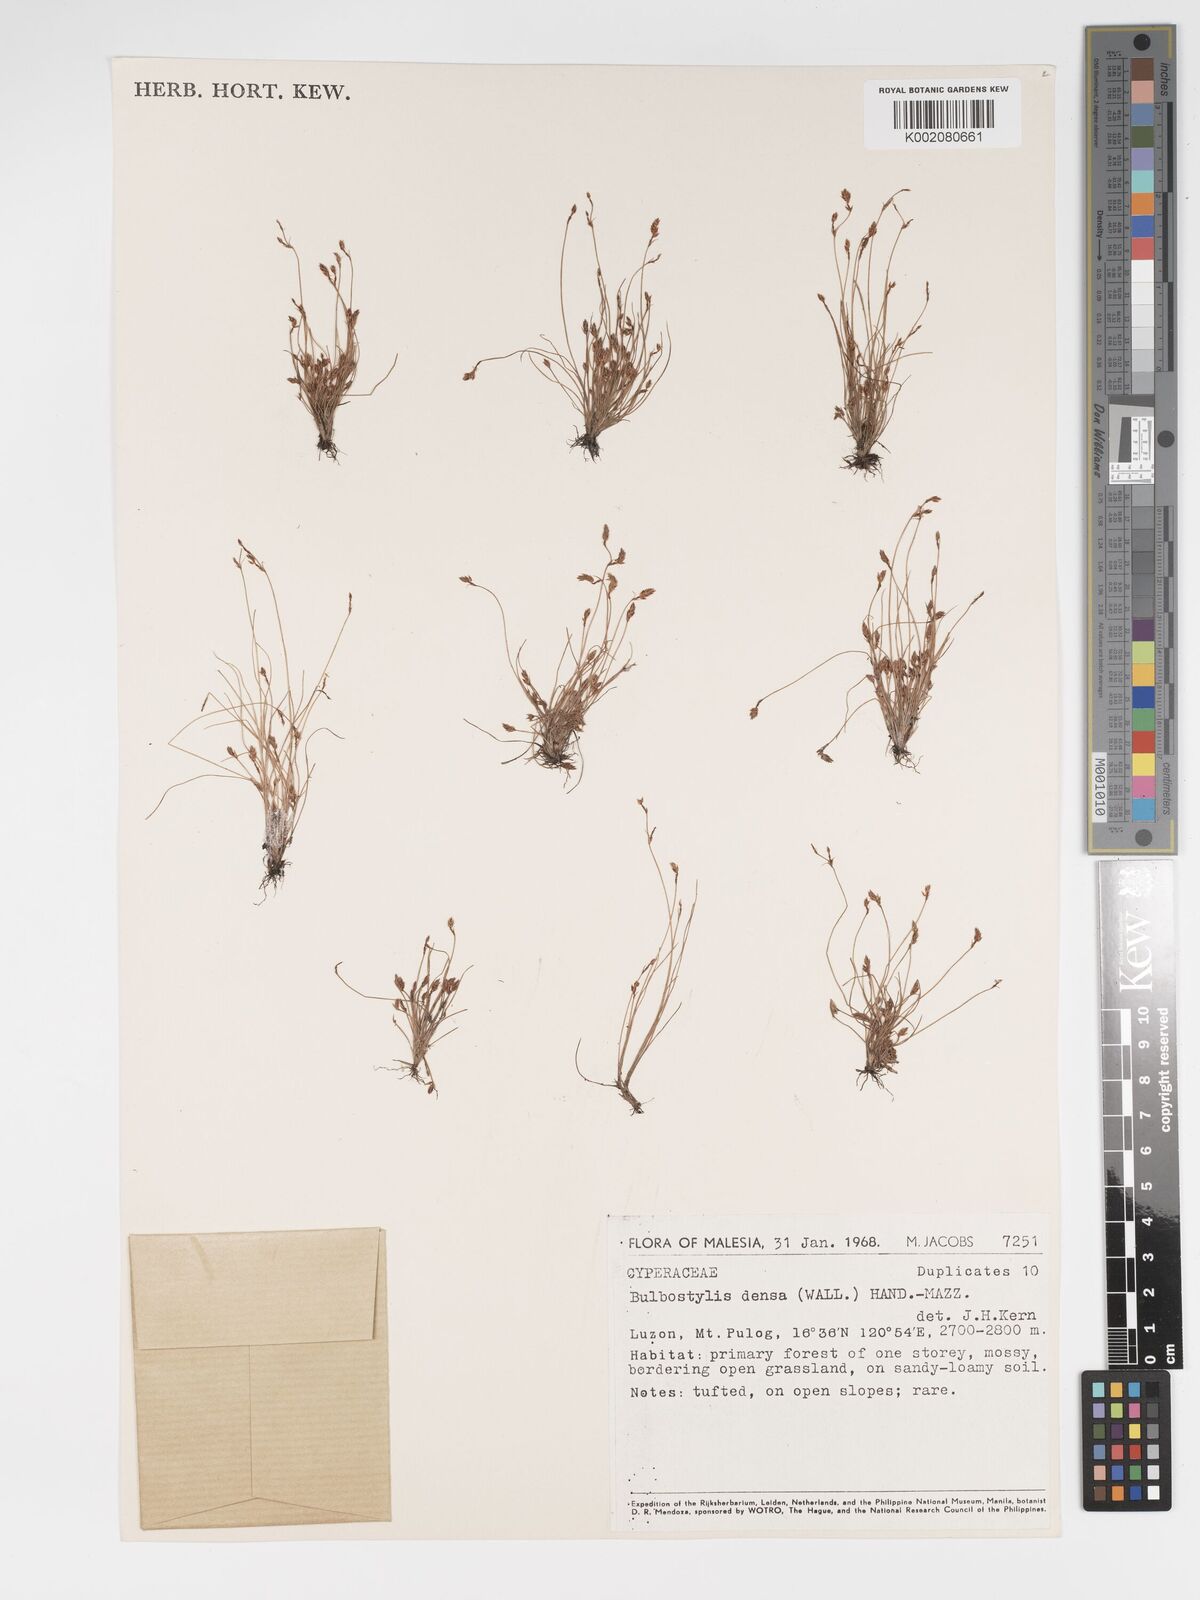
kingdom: Plantae
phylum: Tracheophyta
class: Liliopsida
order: Poales
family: Cyperaceae
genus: Bulbostylis
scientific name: Bulbostylis densa
